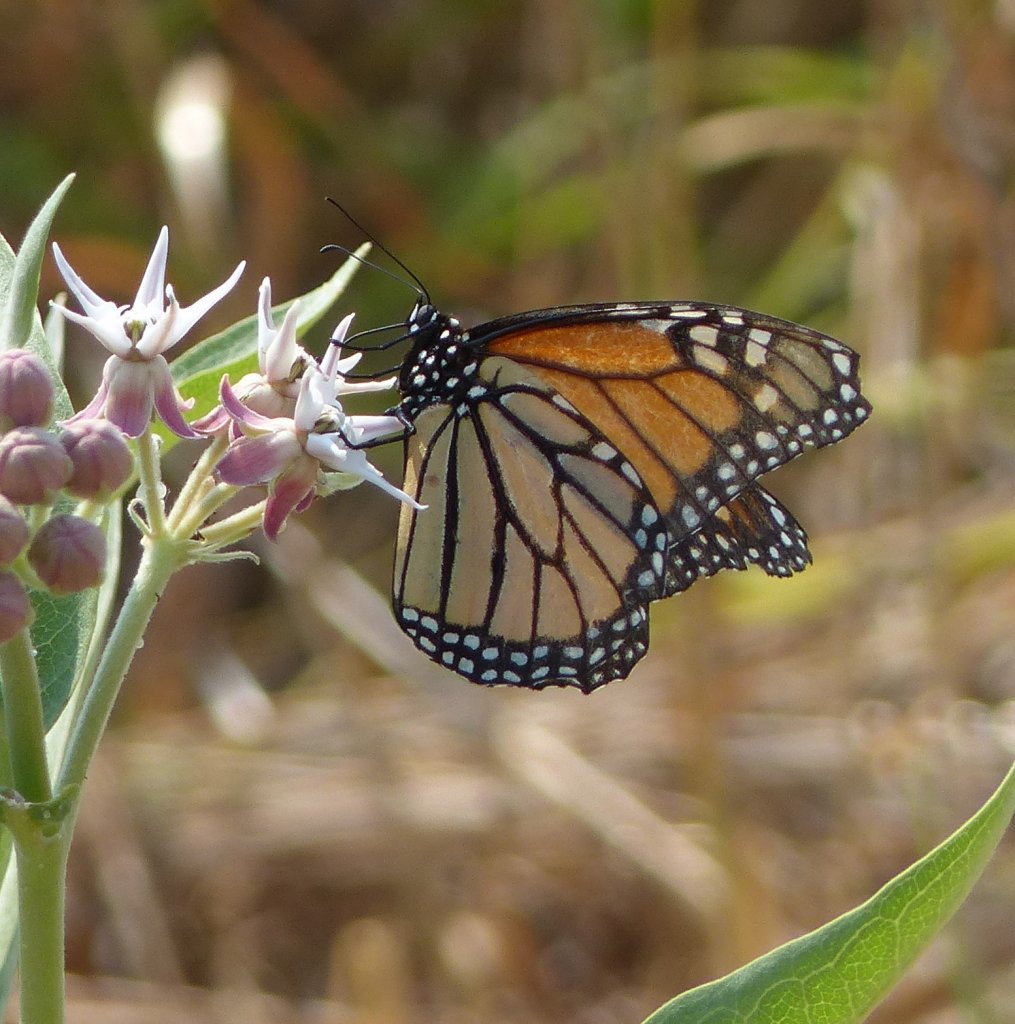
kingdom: Animalia
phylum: Arthropoda
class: Insecta
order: Lepidoptera
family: Nymphalidae
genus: Danaus
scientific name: Danaus plexippus
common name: Monarch
